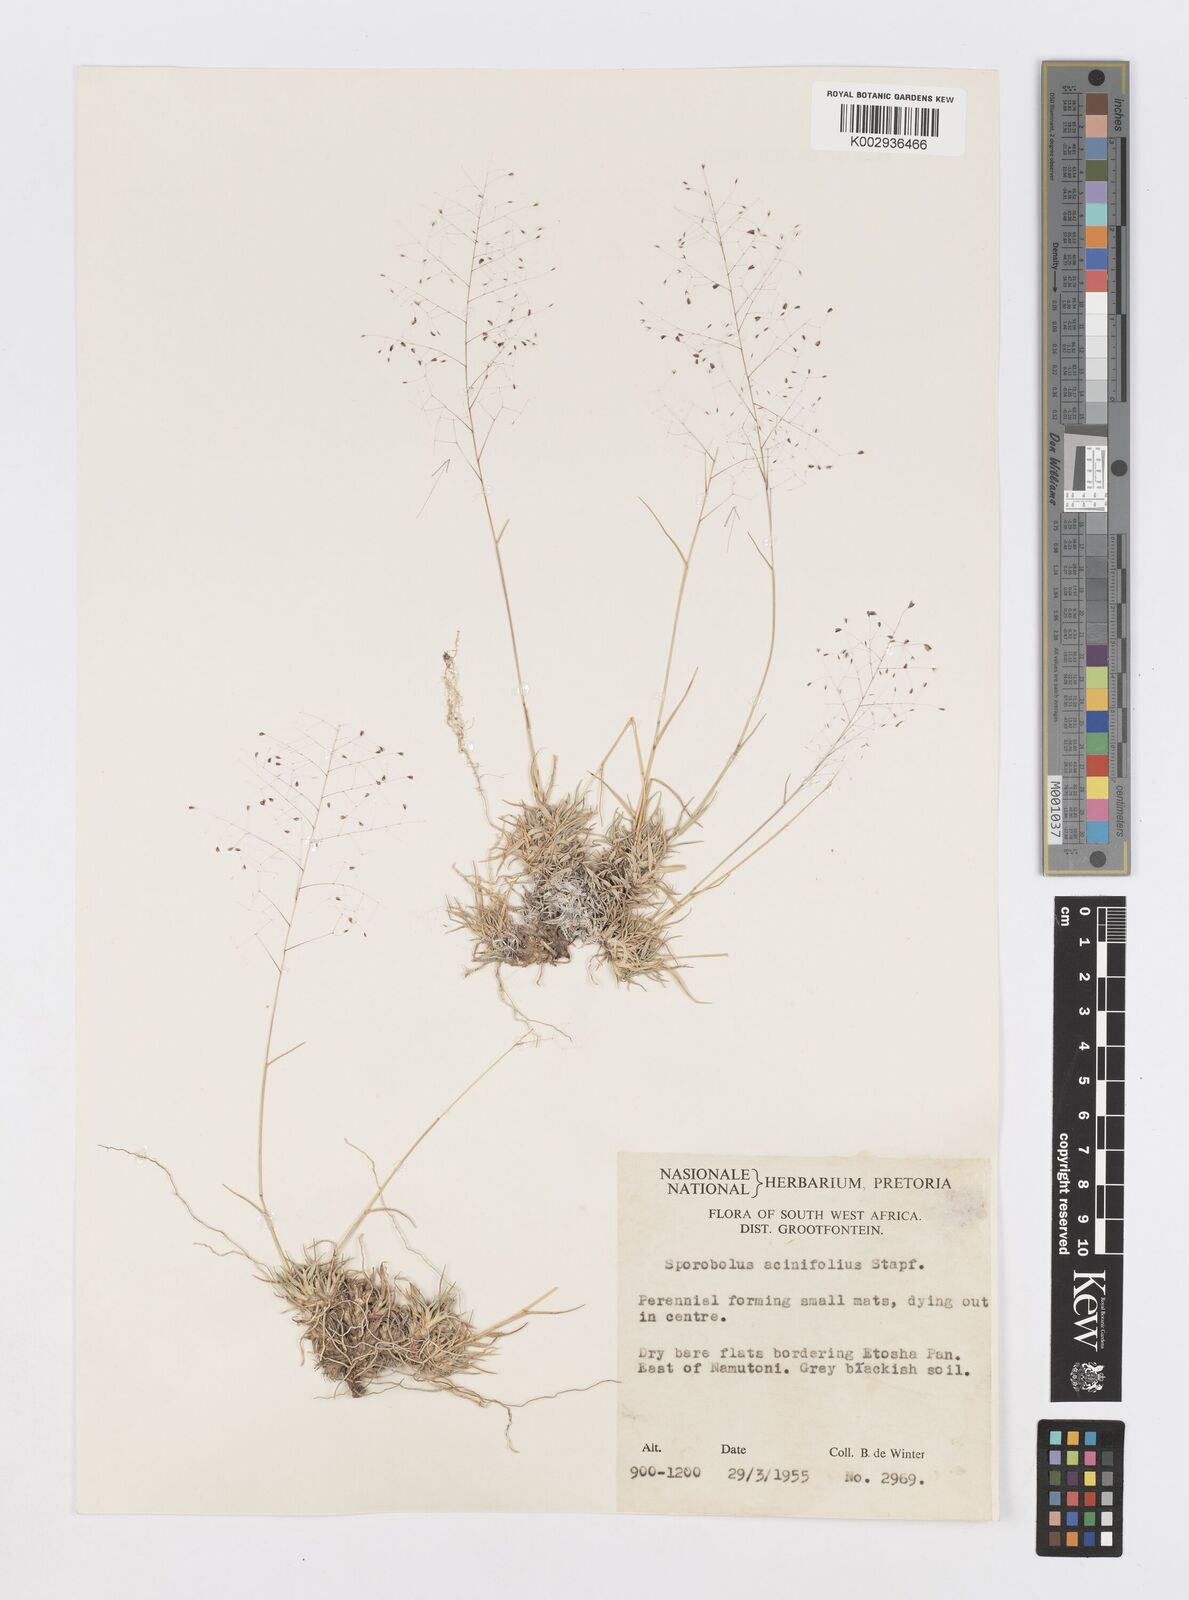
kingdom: Plantae
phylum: Tracheophyta
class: Liliopsida
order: Poales
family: Poaceae
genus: Sporobolus
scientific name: Sporobolus acinifolius
